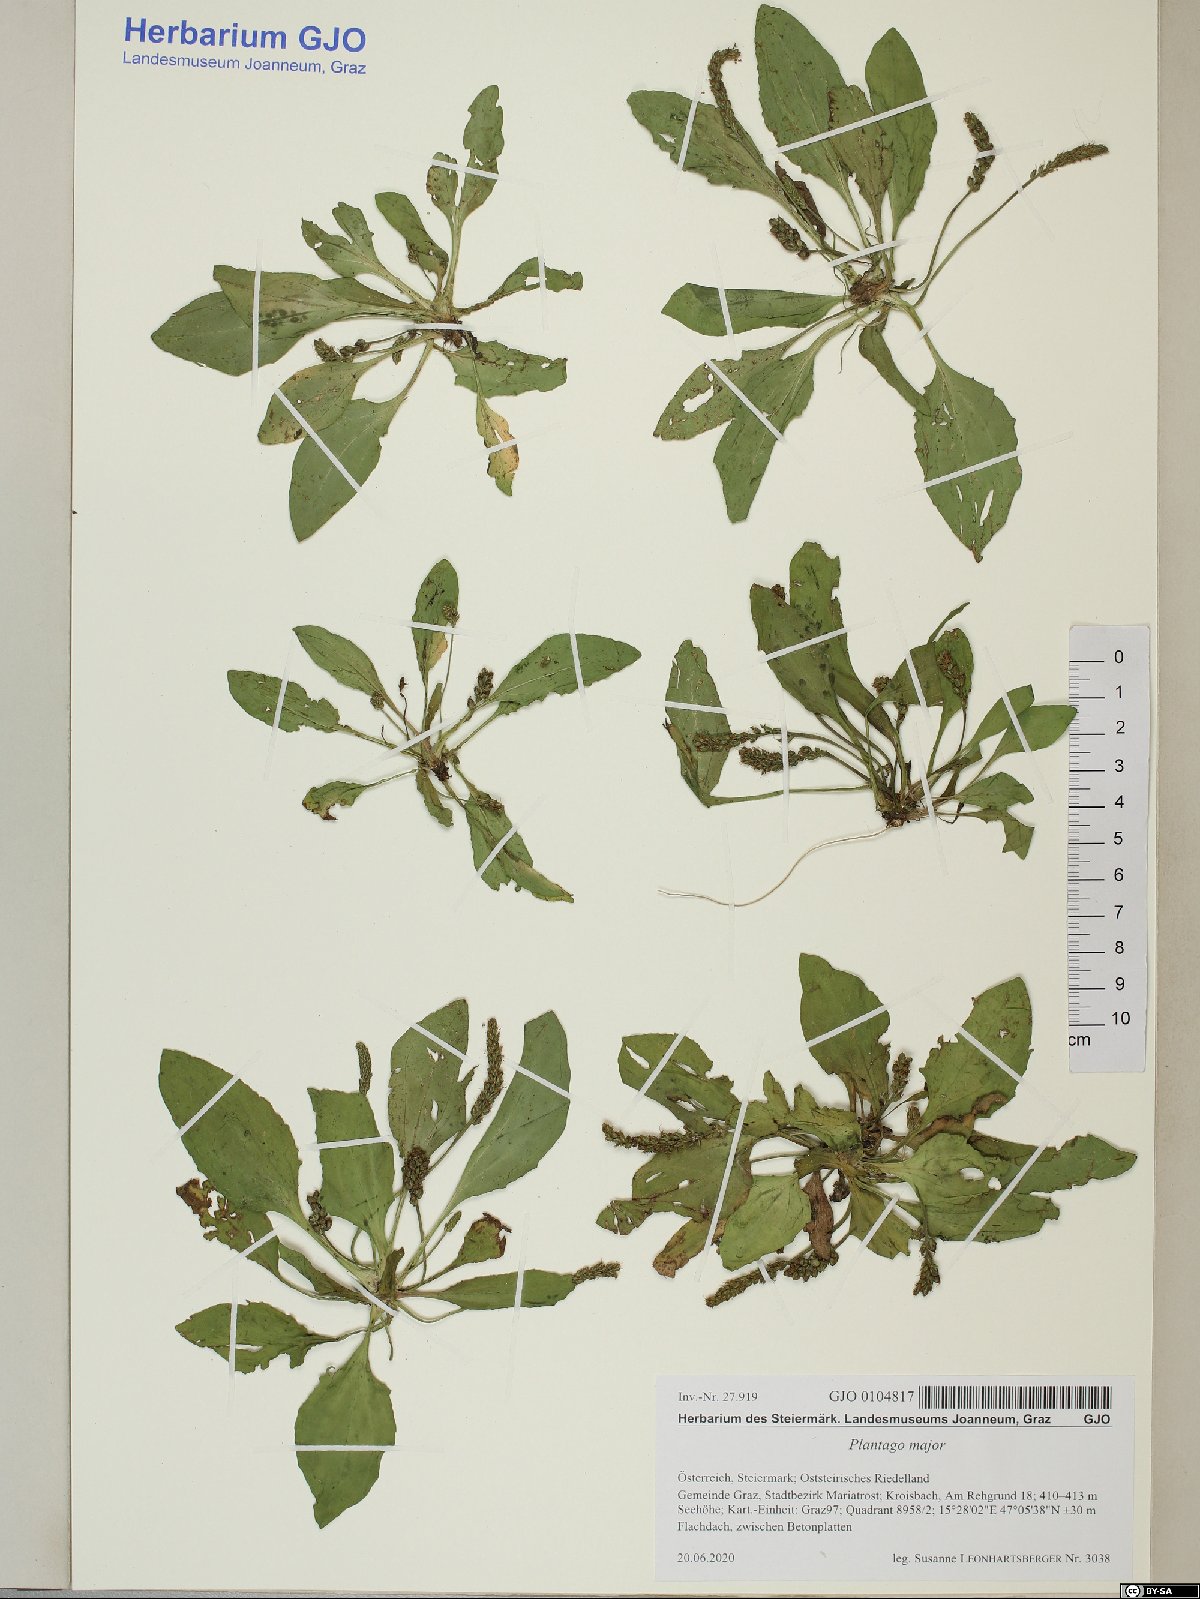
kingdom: Plantae
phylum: Tracheophyta
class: Magnoliopsida
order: Lamiales
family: Plantaginaceae
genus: Plantago
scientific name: Plantago major
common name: Common plantain
